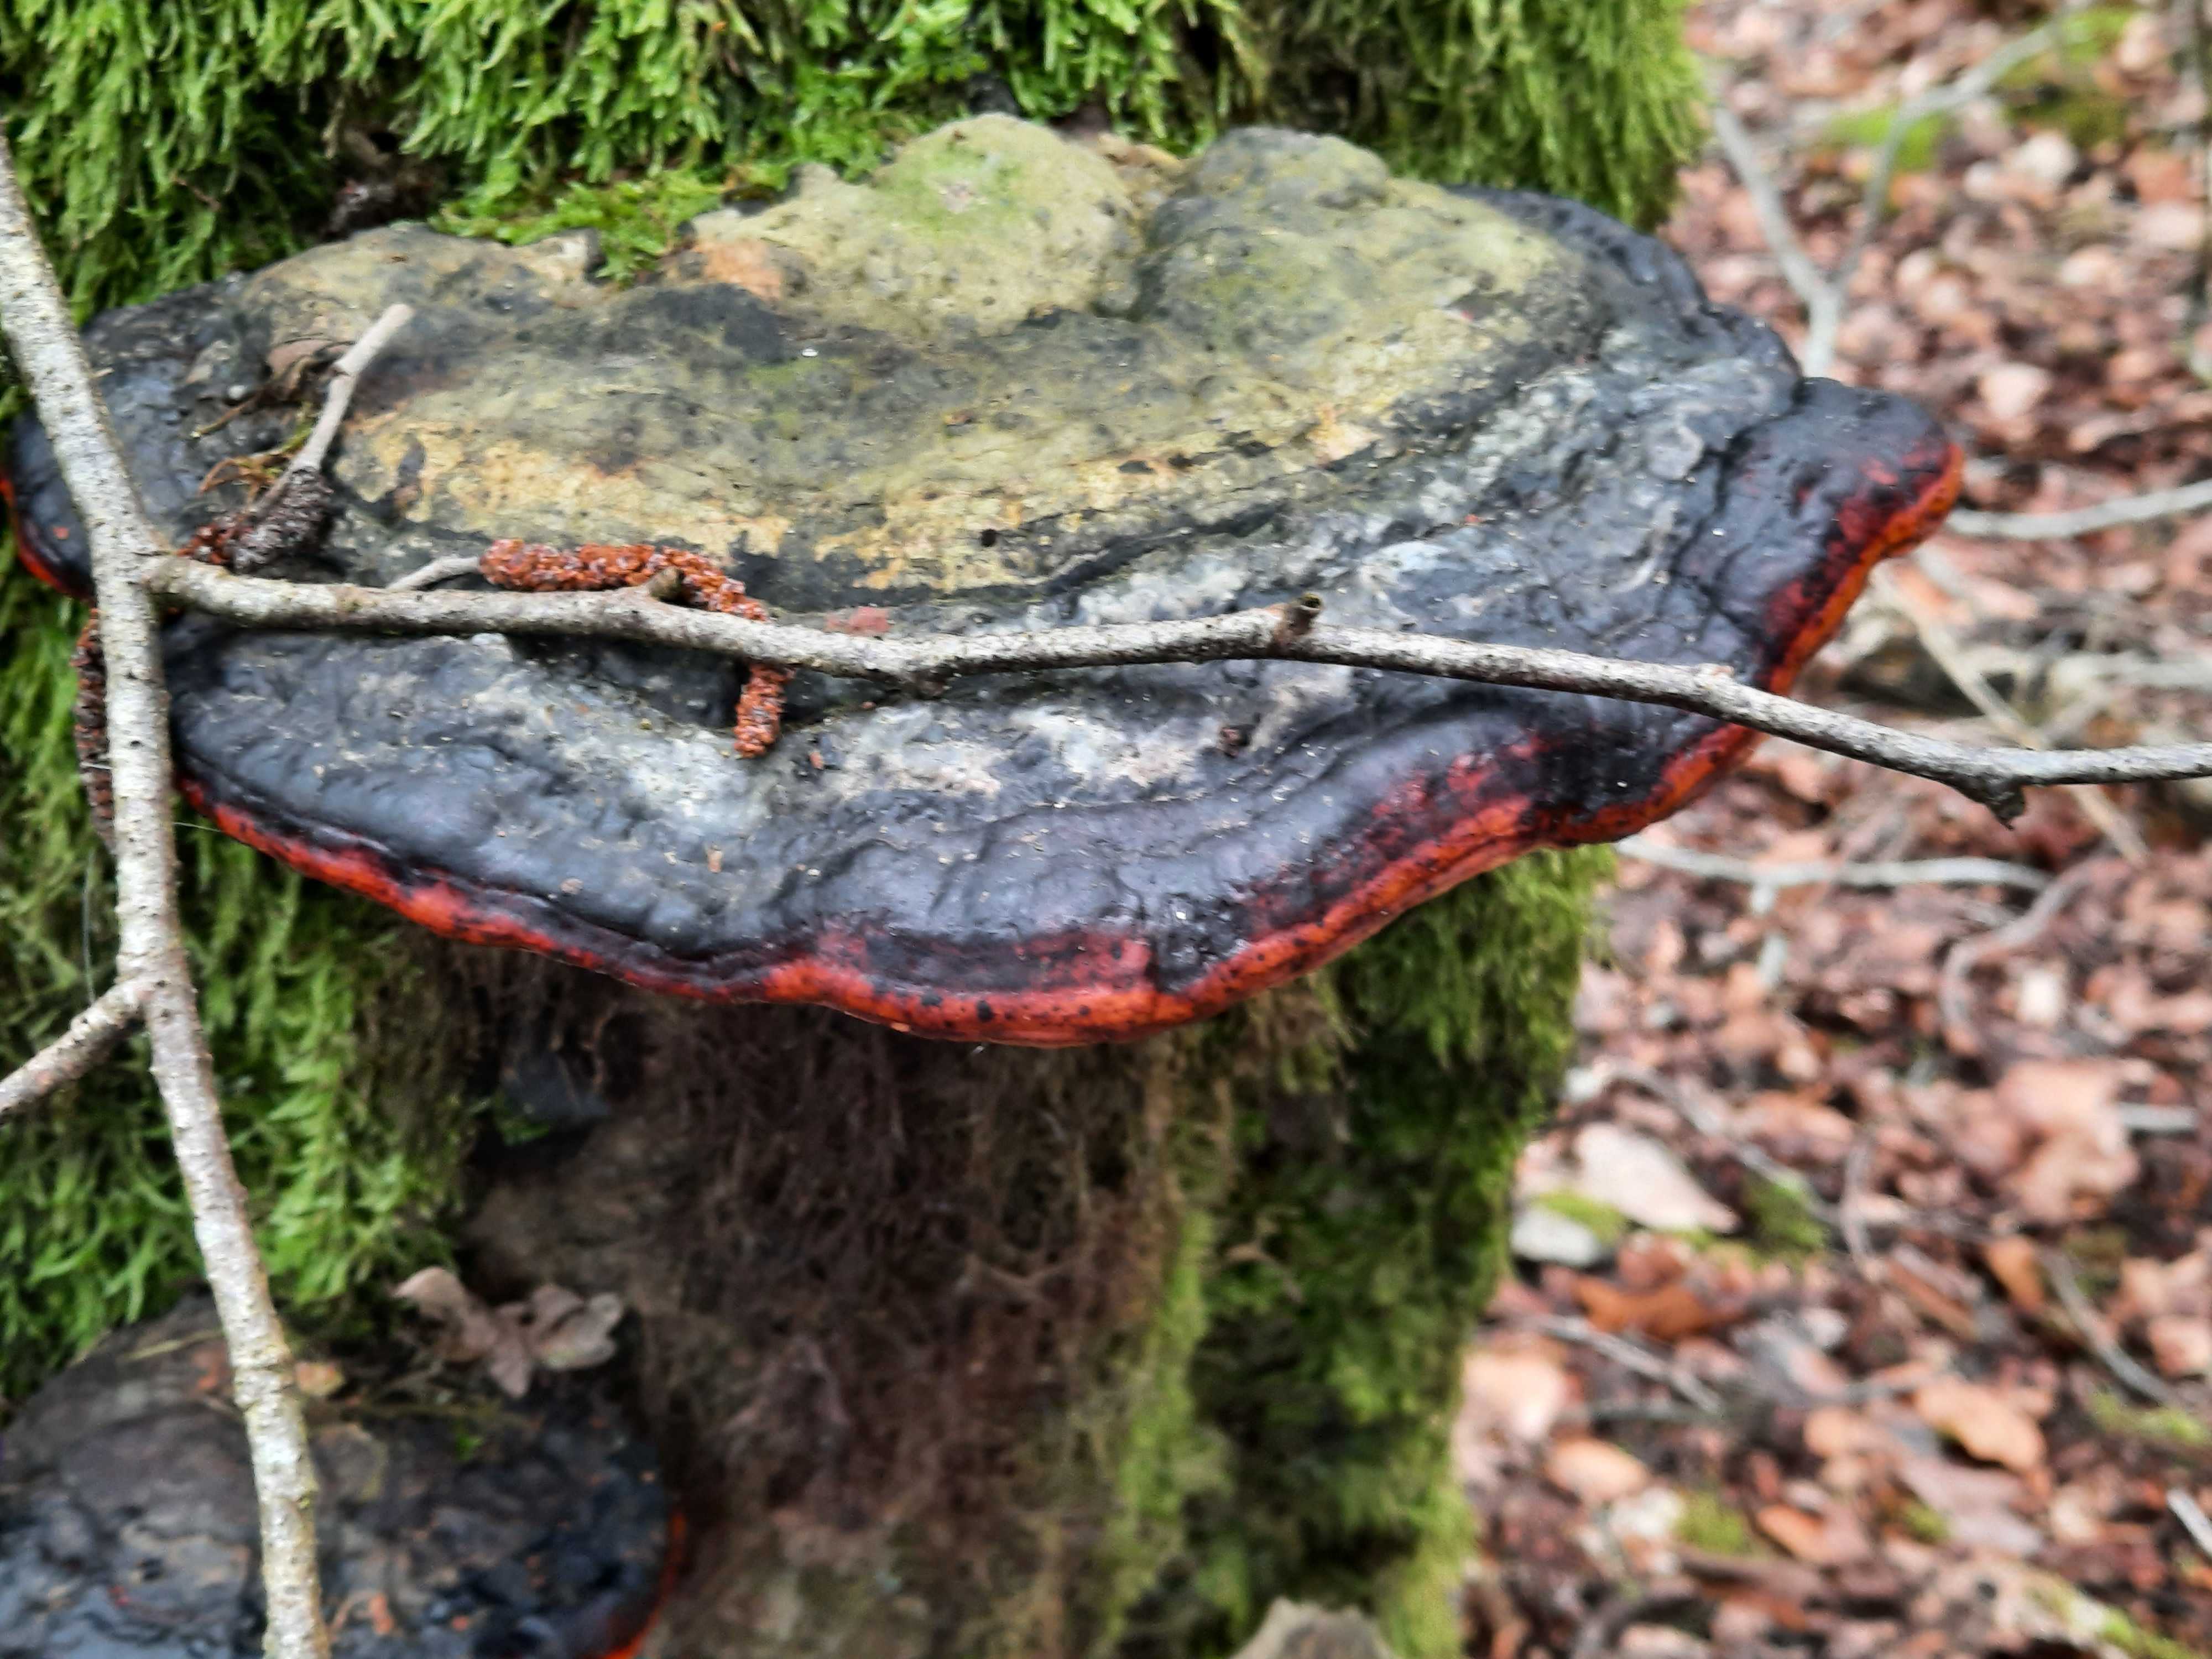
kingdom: Fungi
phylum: Basidiomycota
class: Agaricomycetes
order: Polyporales
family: Fomitopsidaceae
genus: Fomitopsis
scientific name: Fomitopsis pinicola
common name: randbæltet hovporesvamp
